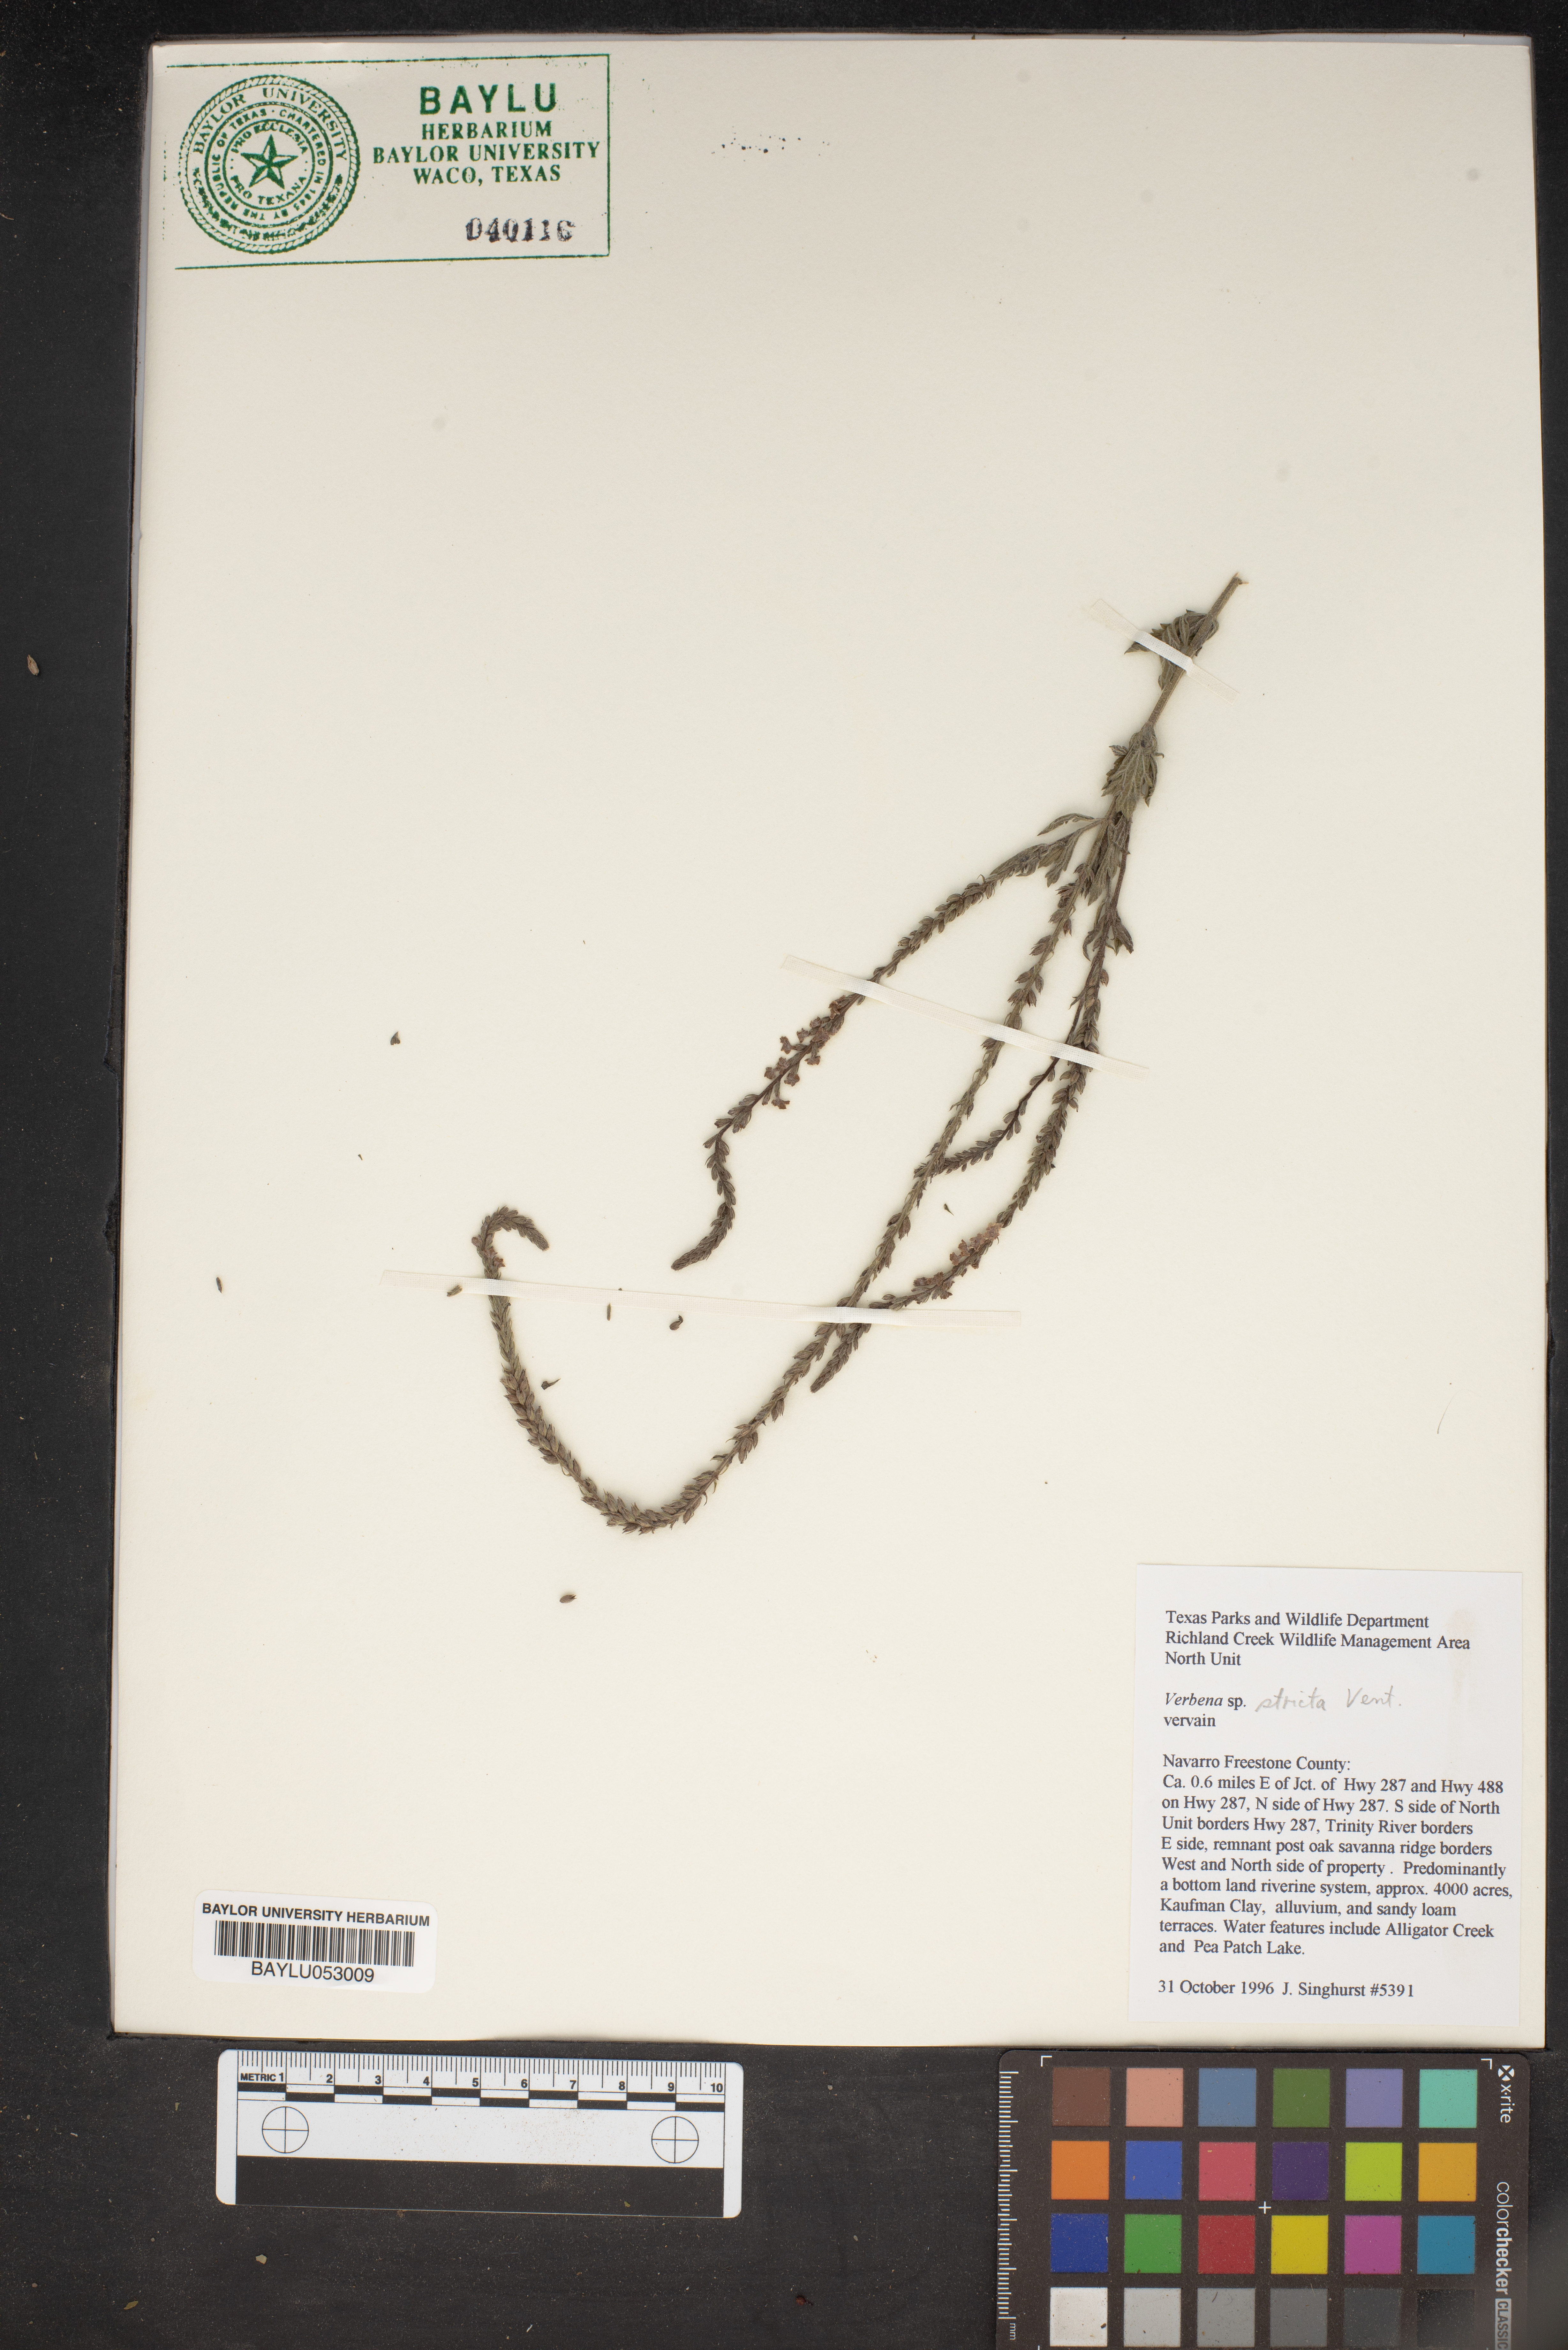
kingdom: Plantae
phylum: Tracheophyta
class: Magnoliopsida
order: Lamiales
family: Verbenaceae
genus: Verbena
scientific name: Verbena stricta
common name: Hoary vervain
